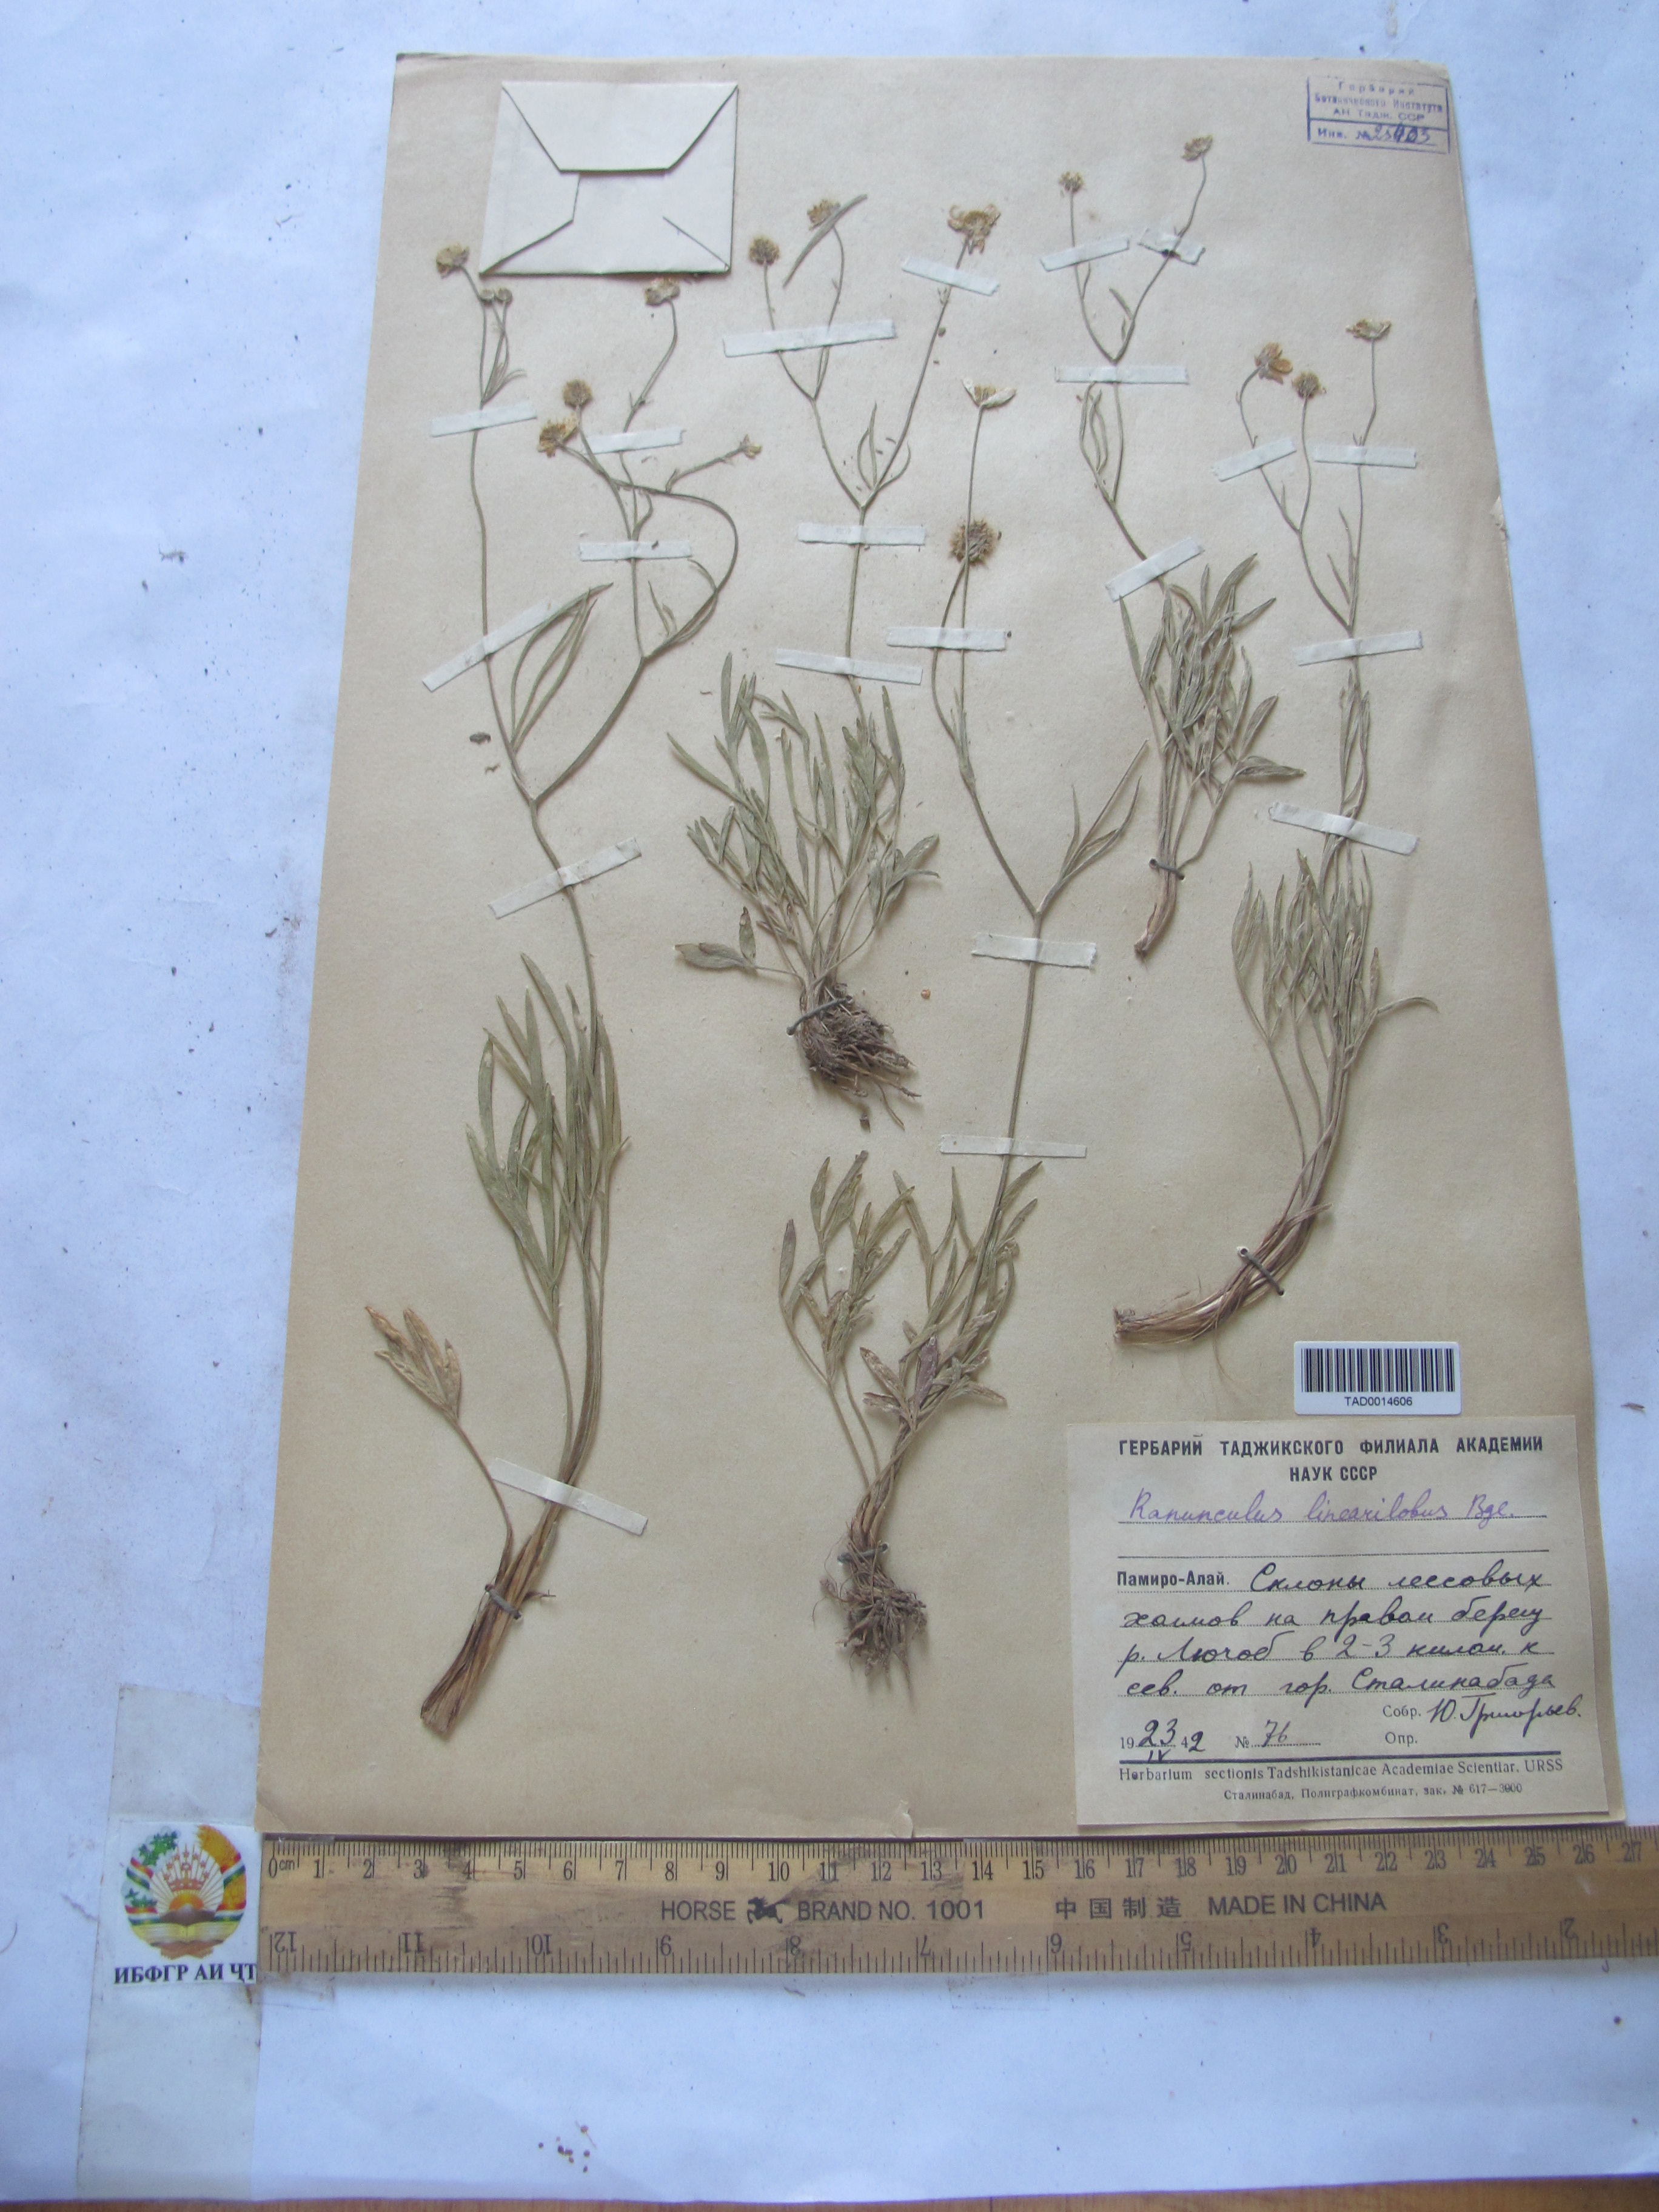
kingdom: Plantae
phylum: Tracheophyta
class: Magnoliopsida
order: Ranunculales
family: Ranunculaceae
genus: Ranunculus
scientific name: Ranunculus linearilobus
